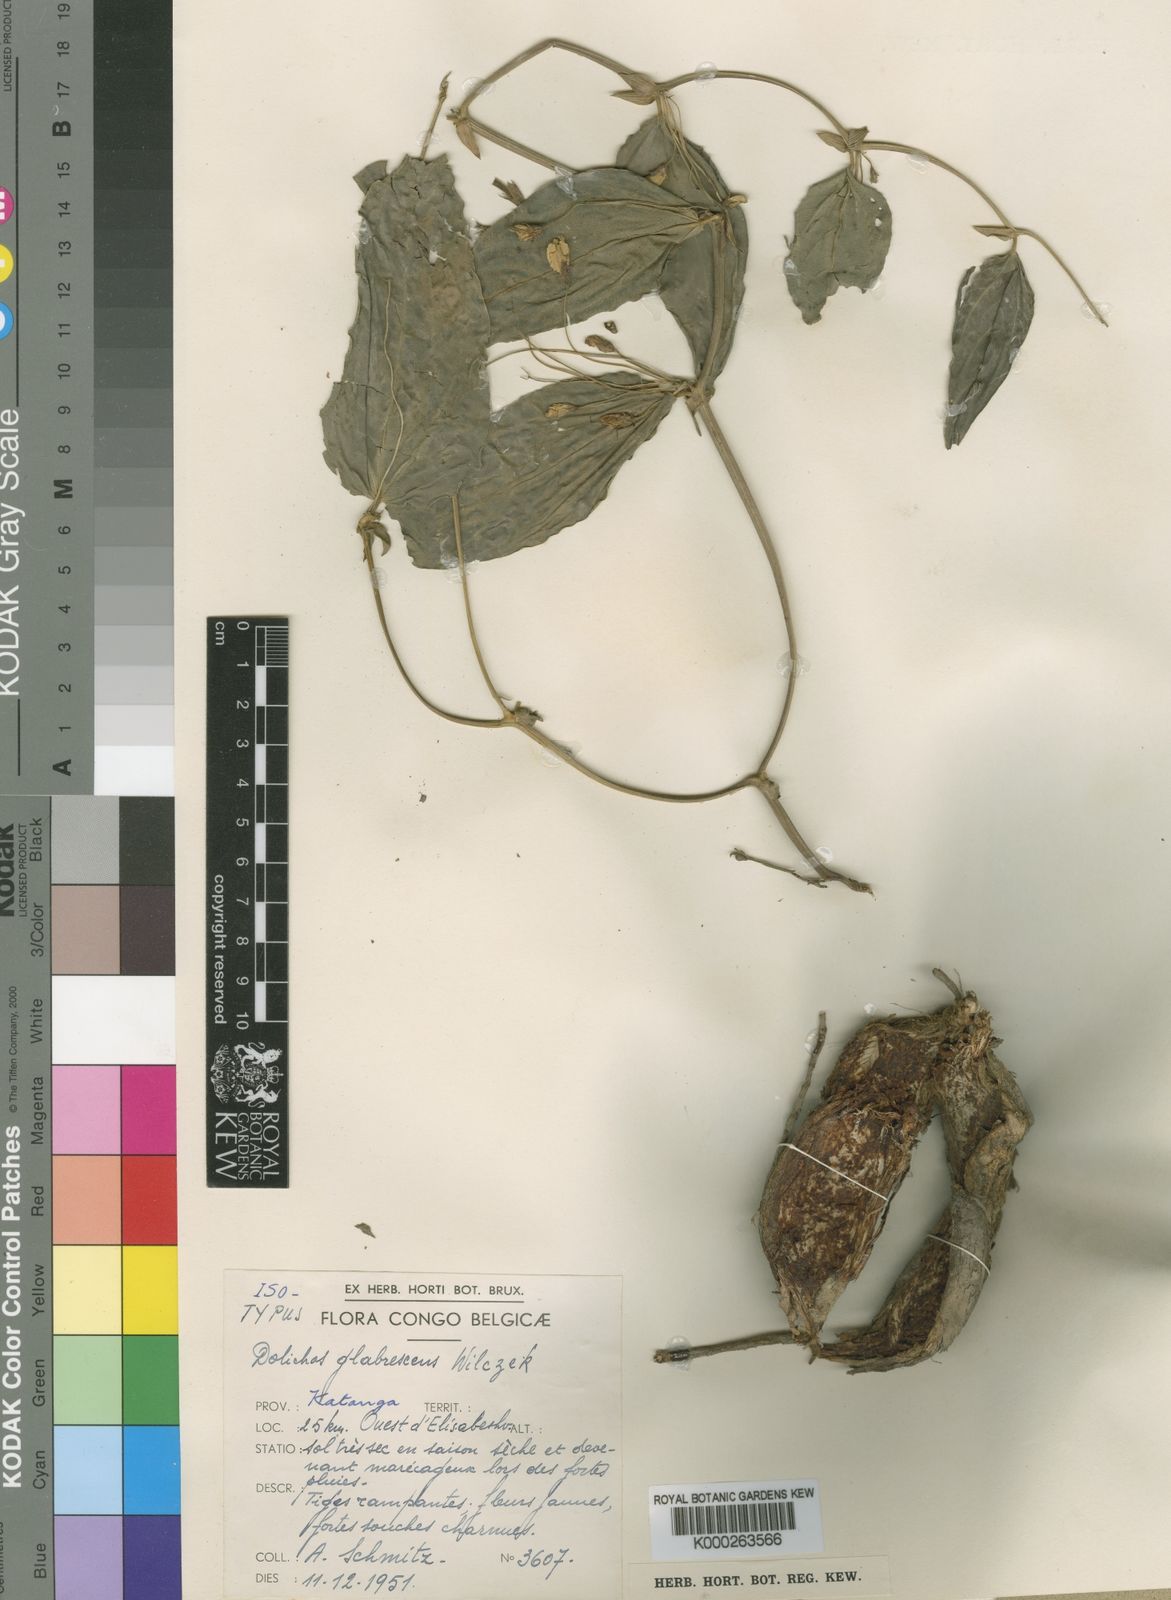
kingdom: Plantae
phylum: Tracheophyta
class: Magnoliopsida
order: Fabales
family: Fabaceae
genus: Dolichos
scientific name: Dolichos
